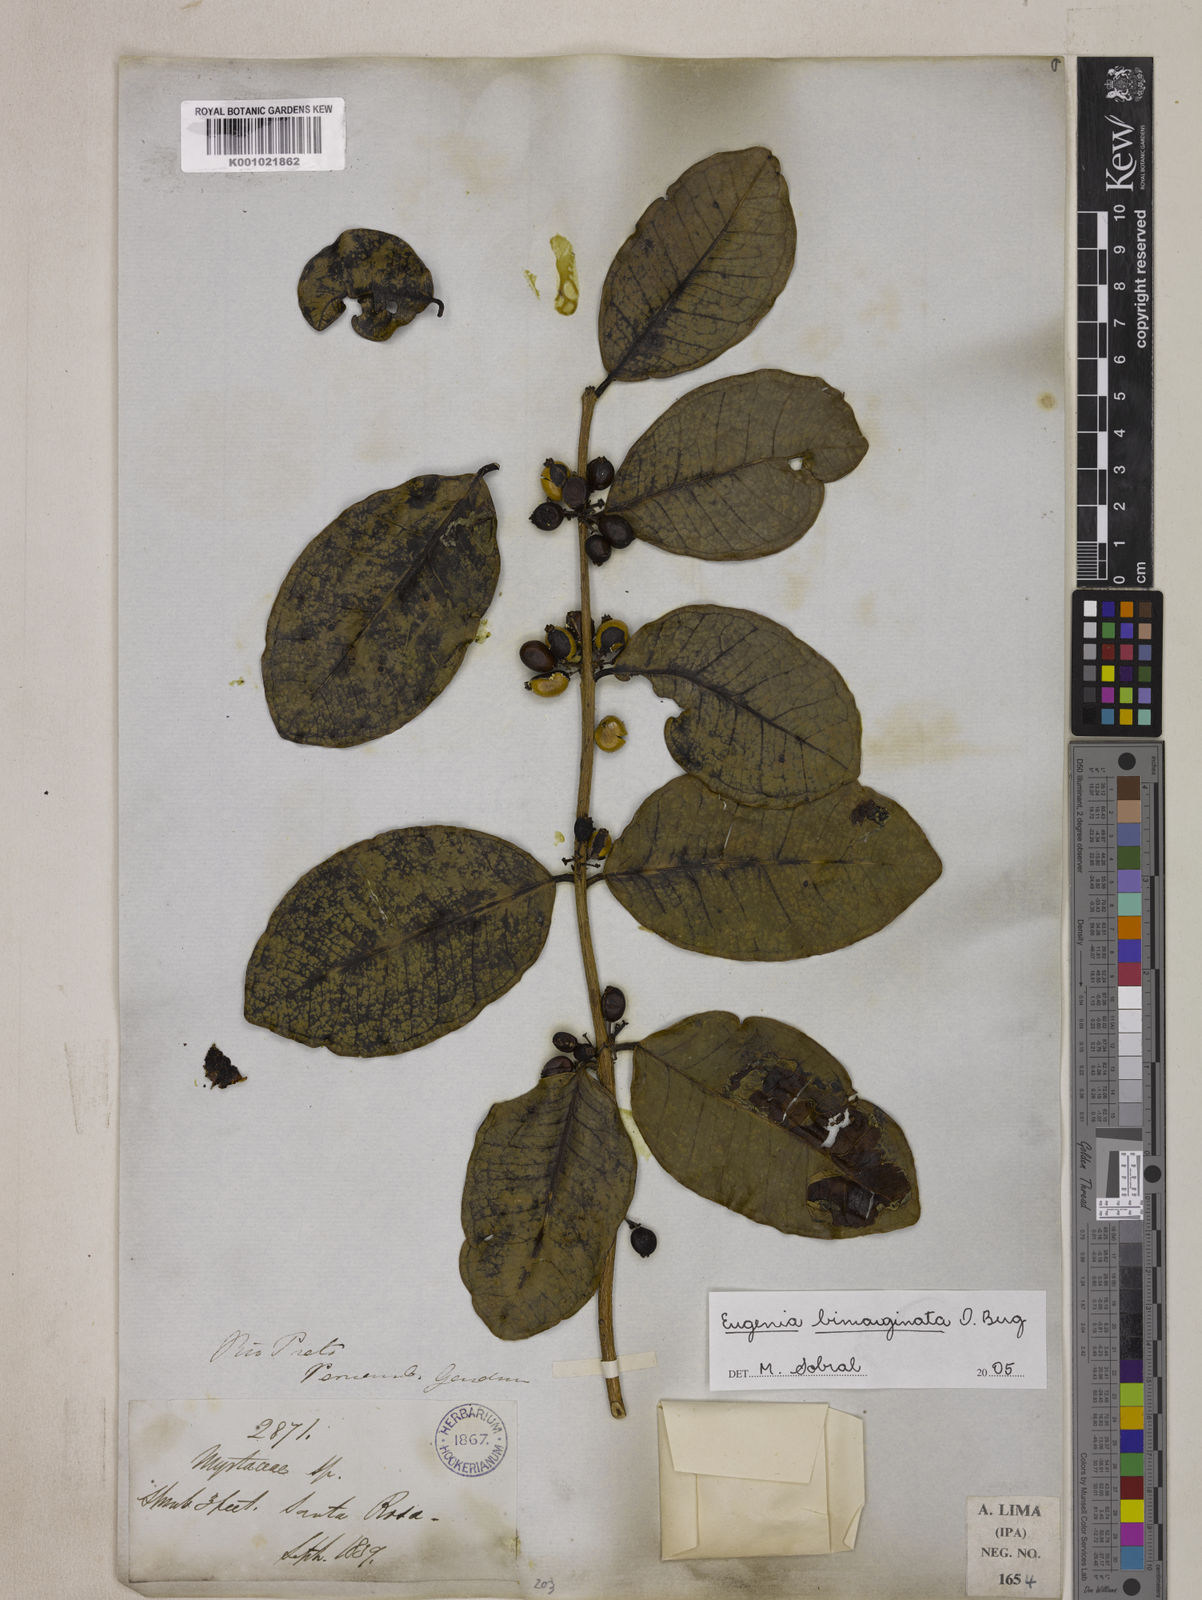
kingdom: Plantae
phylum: Tracheophyta
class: Magnoliopsida
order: Myrtales
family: Myrtaceae
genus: Eugenia
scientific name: Eugenia warmingiana
